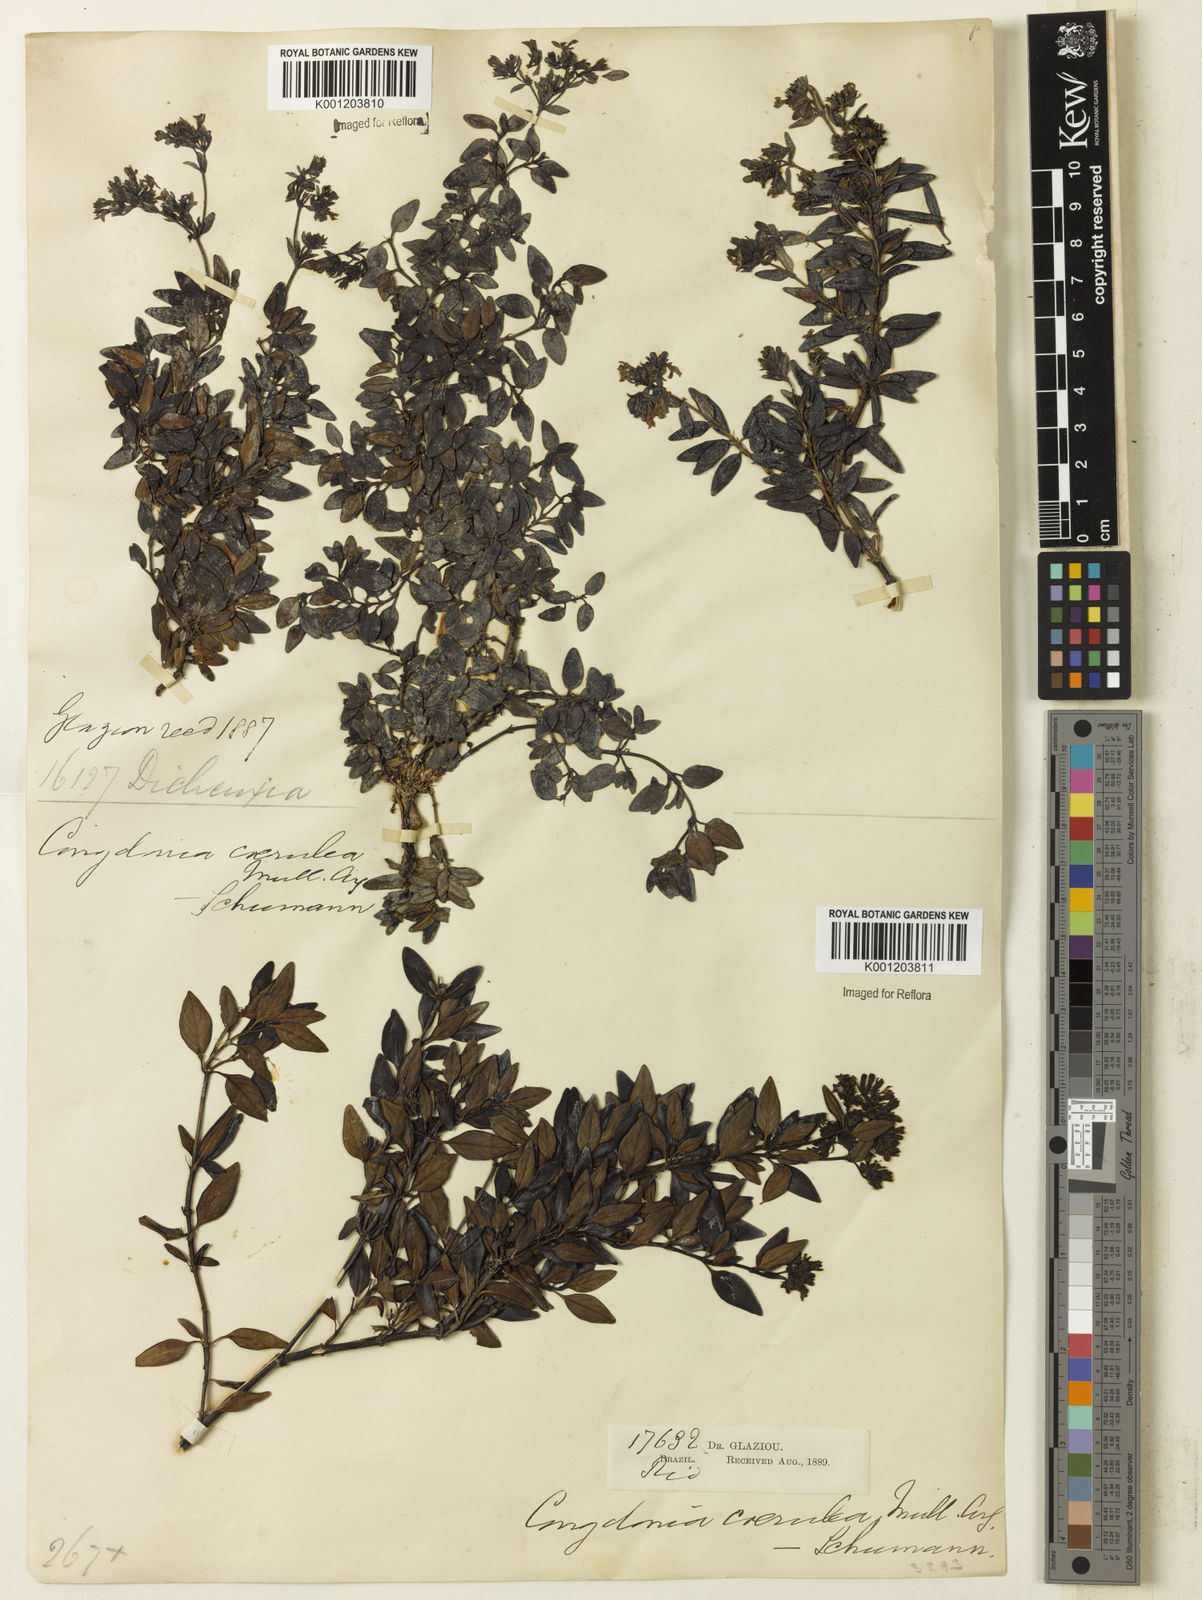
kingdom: Plantae
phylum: Tracheophyta
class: Magnoliopsida
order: Gentianales
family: Rubiaceae
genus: Declieuxia
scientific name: Declieuxia coerulea
